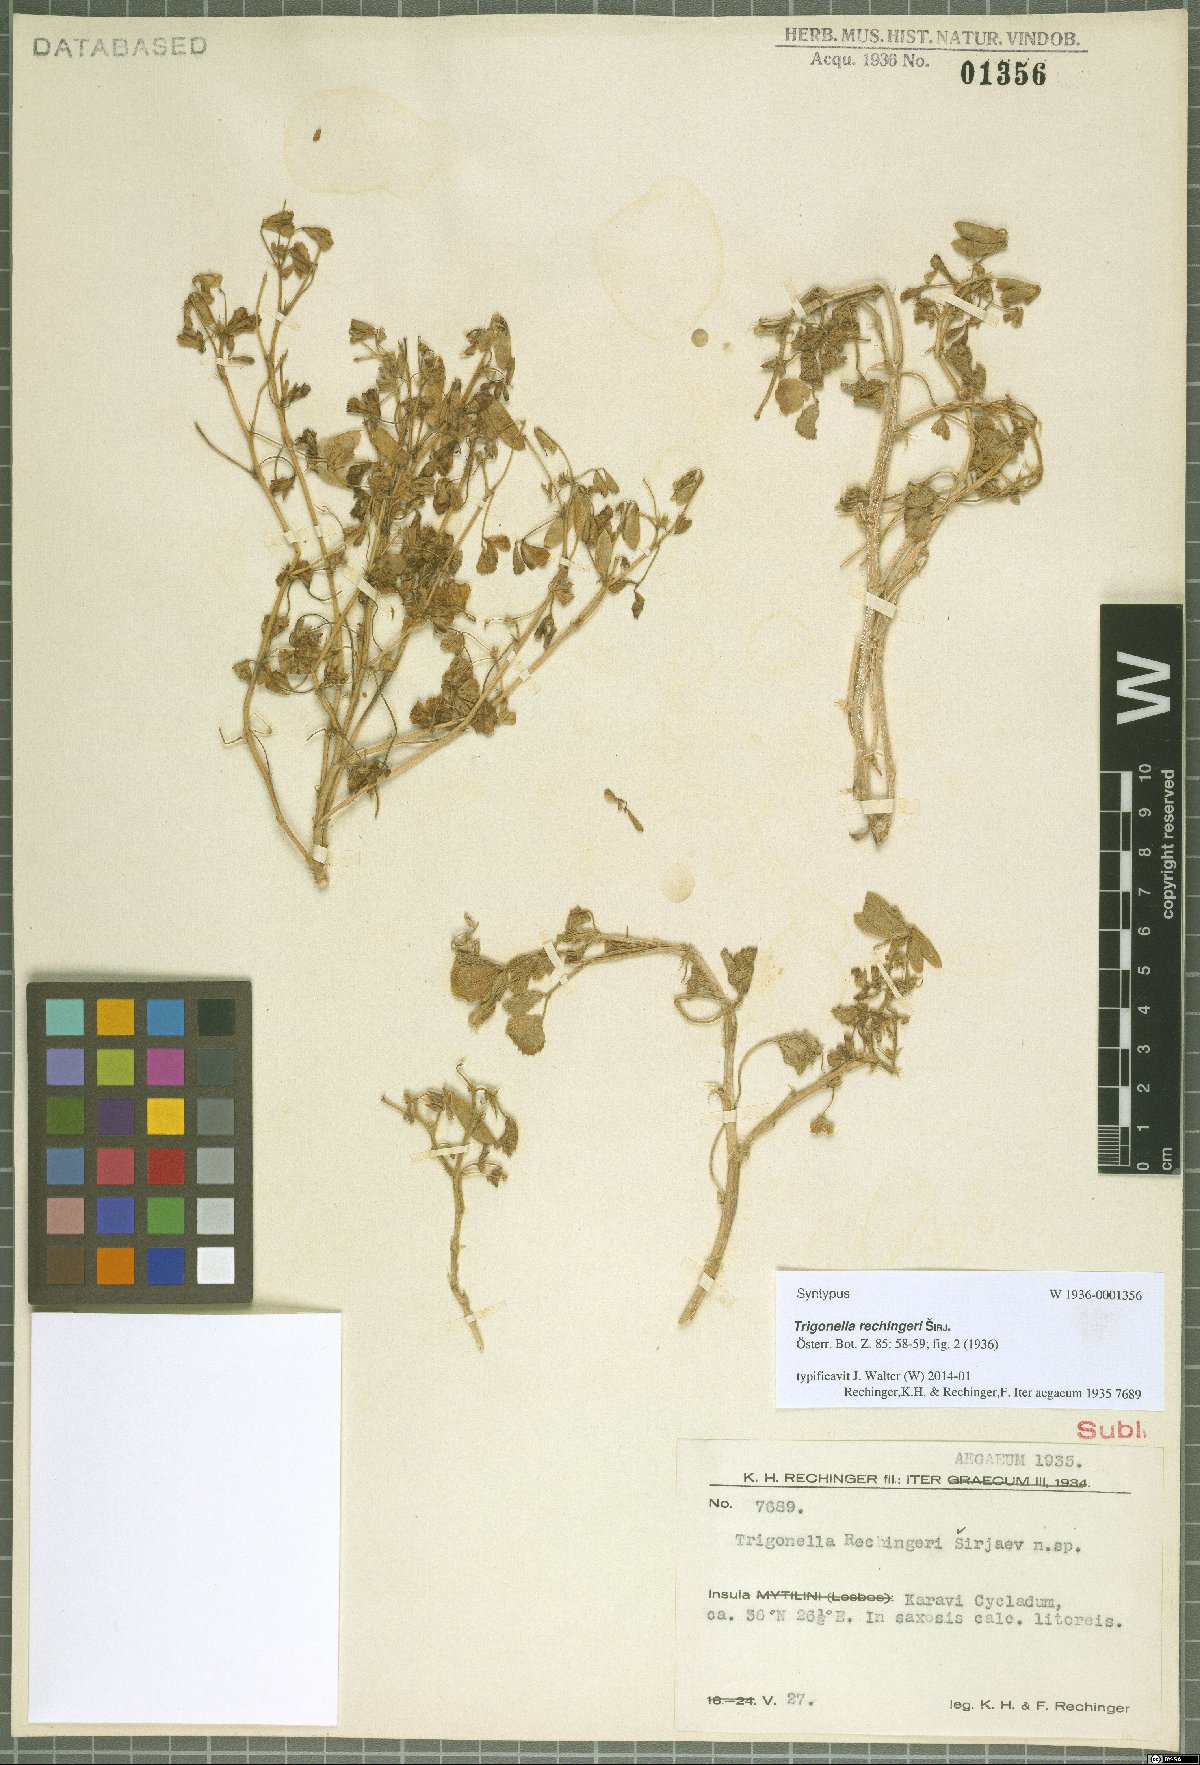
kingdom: Plantae
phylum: Tracheophyta
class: Magnoliopsida
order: Fabales
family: Fabaceae
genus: Trigonella
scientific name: Trigonella rechingeri
